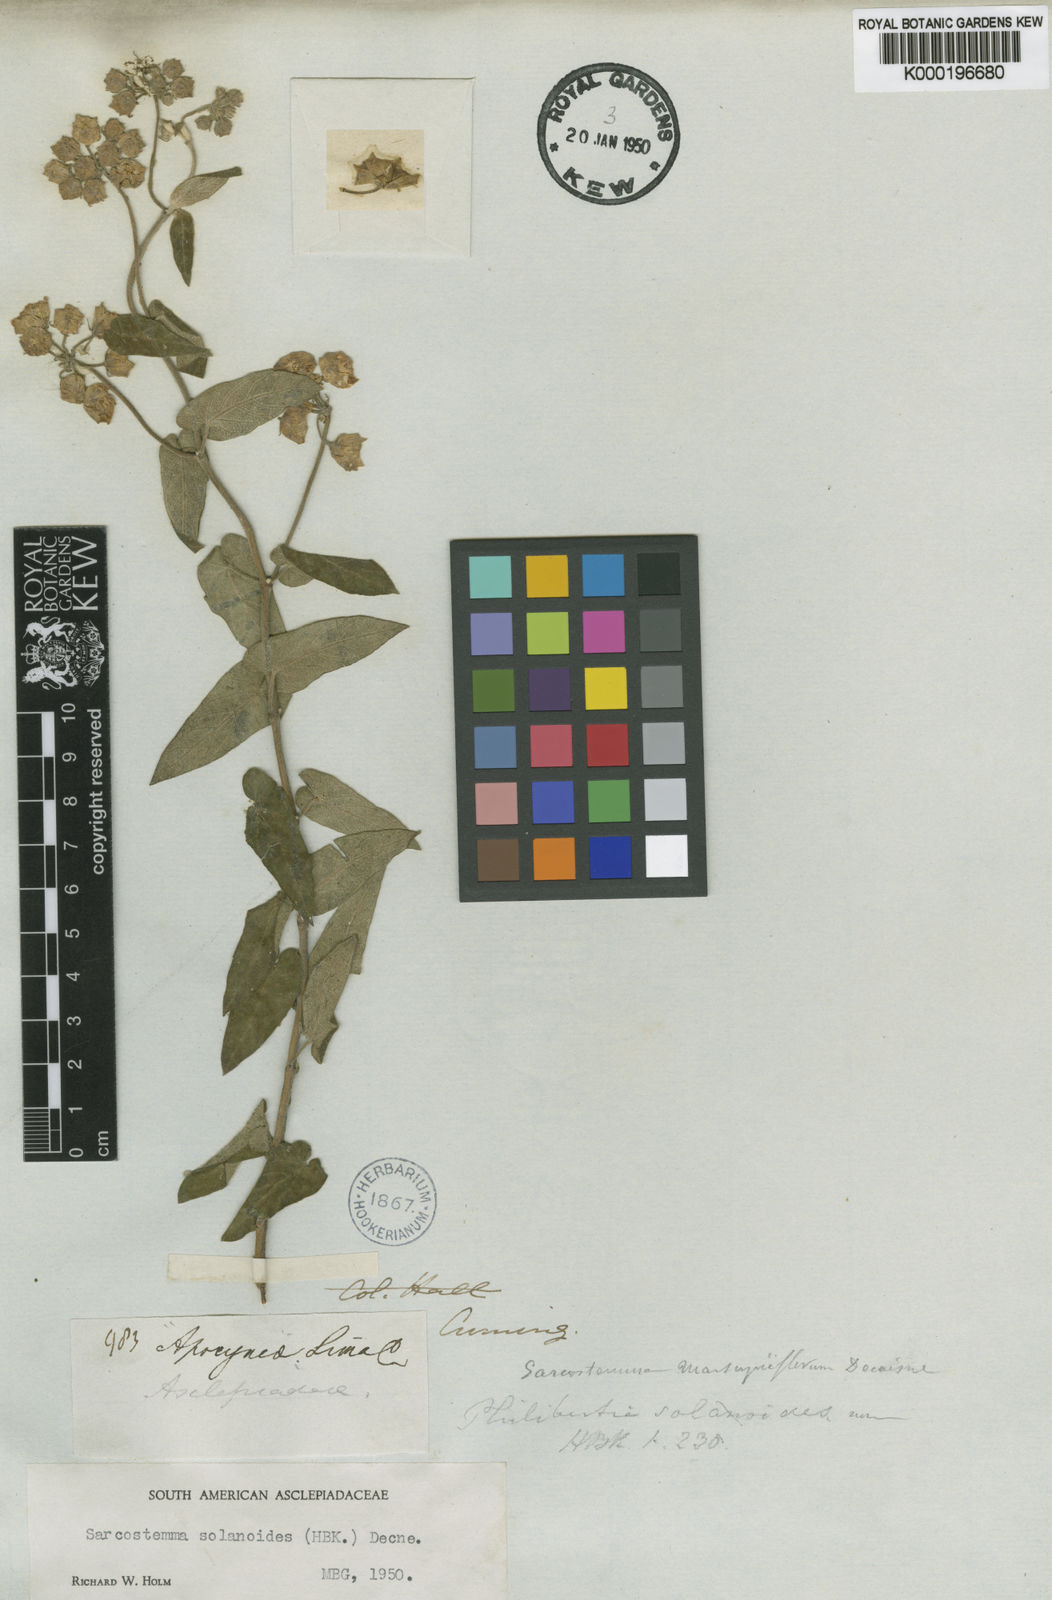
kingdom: Plantae
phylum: Tracheophyta
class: Magnoliopsida
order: Gentianales
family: Apocynaceae
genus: Philibertia
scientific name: Philibertia solanoides
